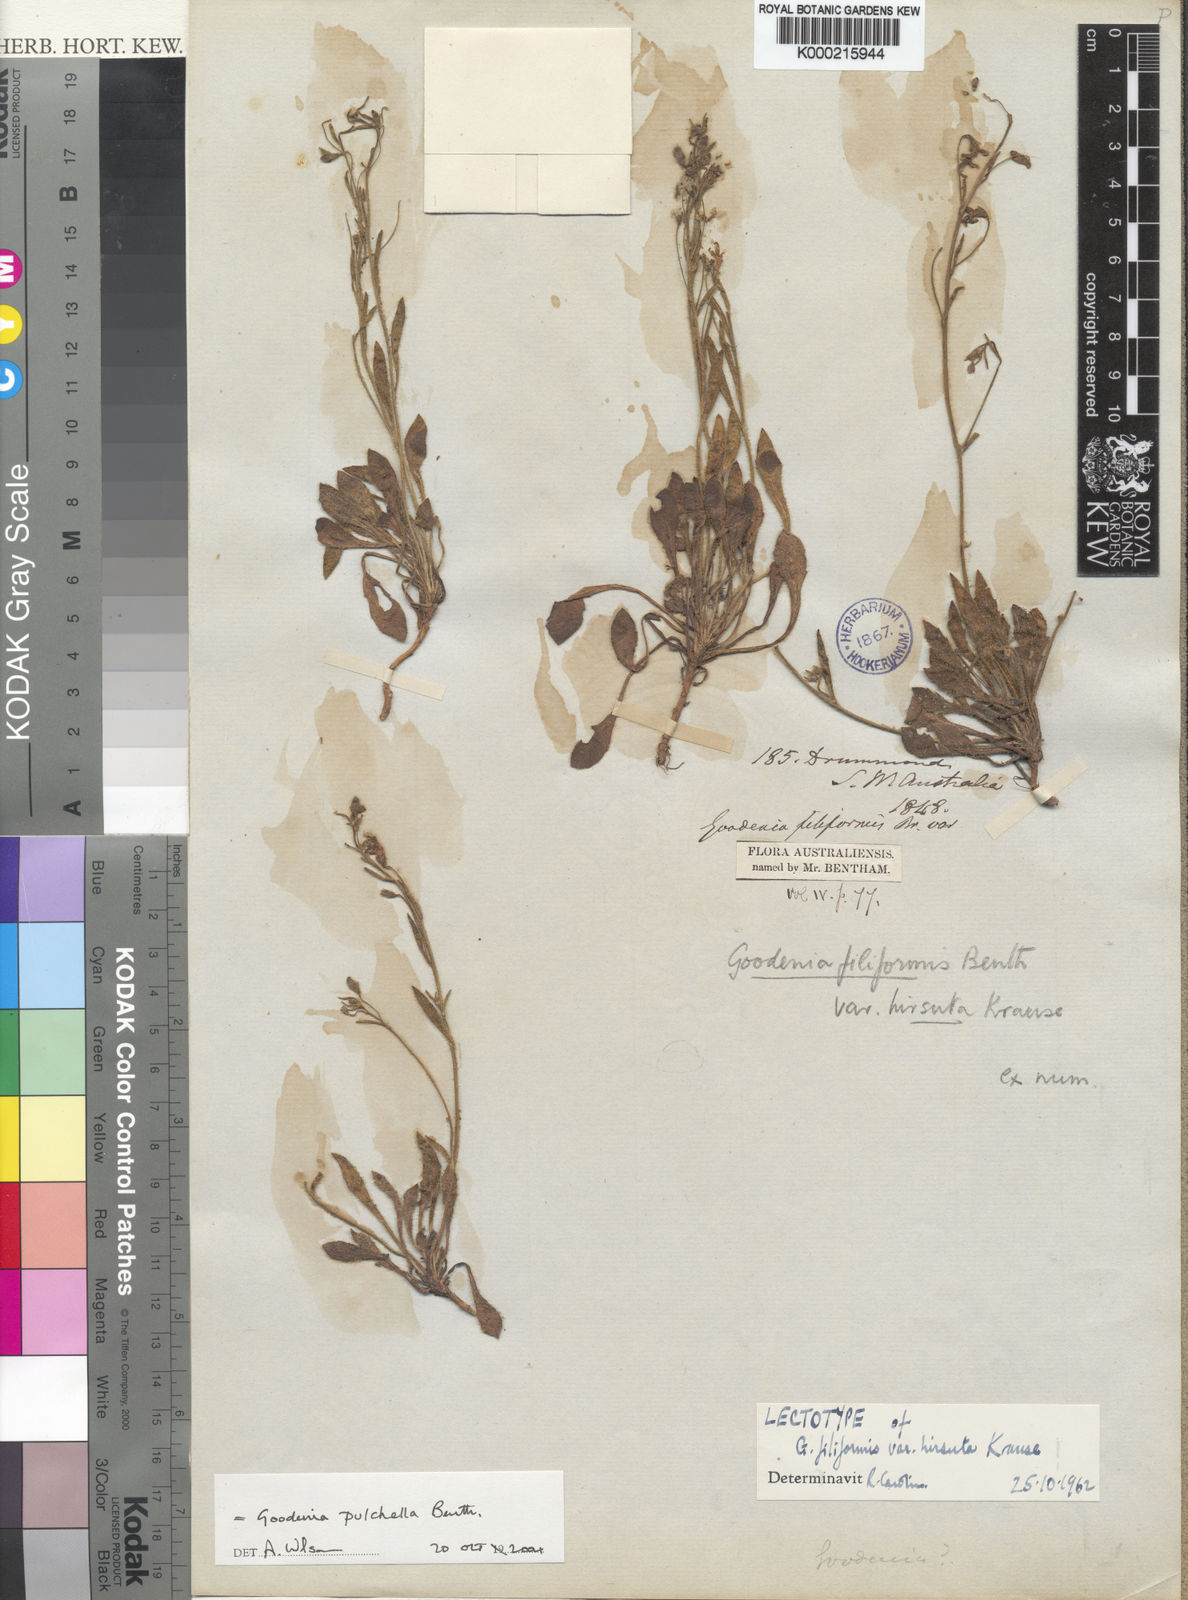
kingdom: Plantae
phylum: Tracheophyta
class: Magnoliopsida
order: Asterales
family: Goodeniaceae
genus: Goodenia
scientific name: Goodenia pulchella
